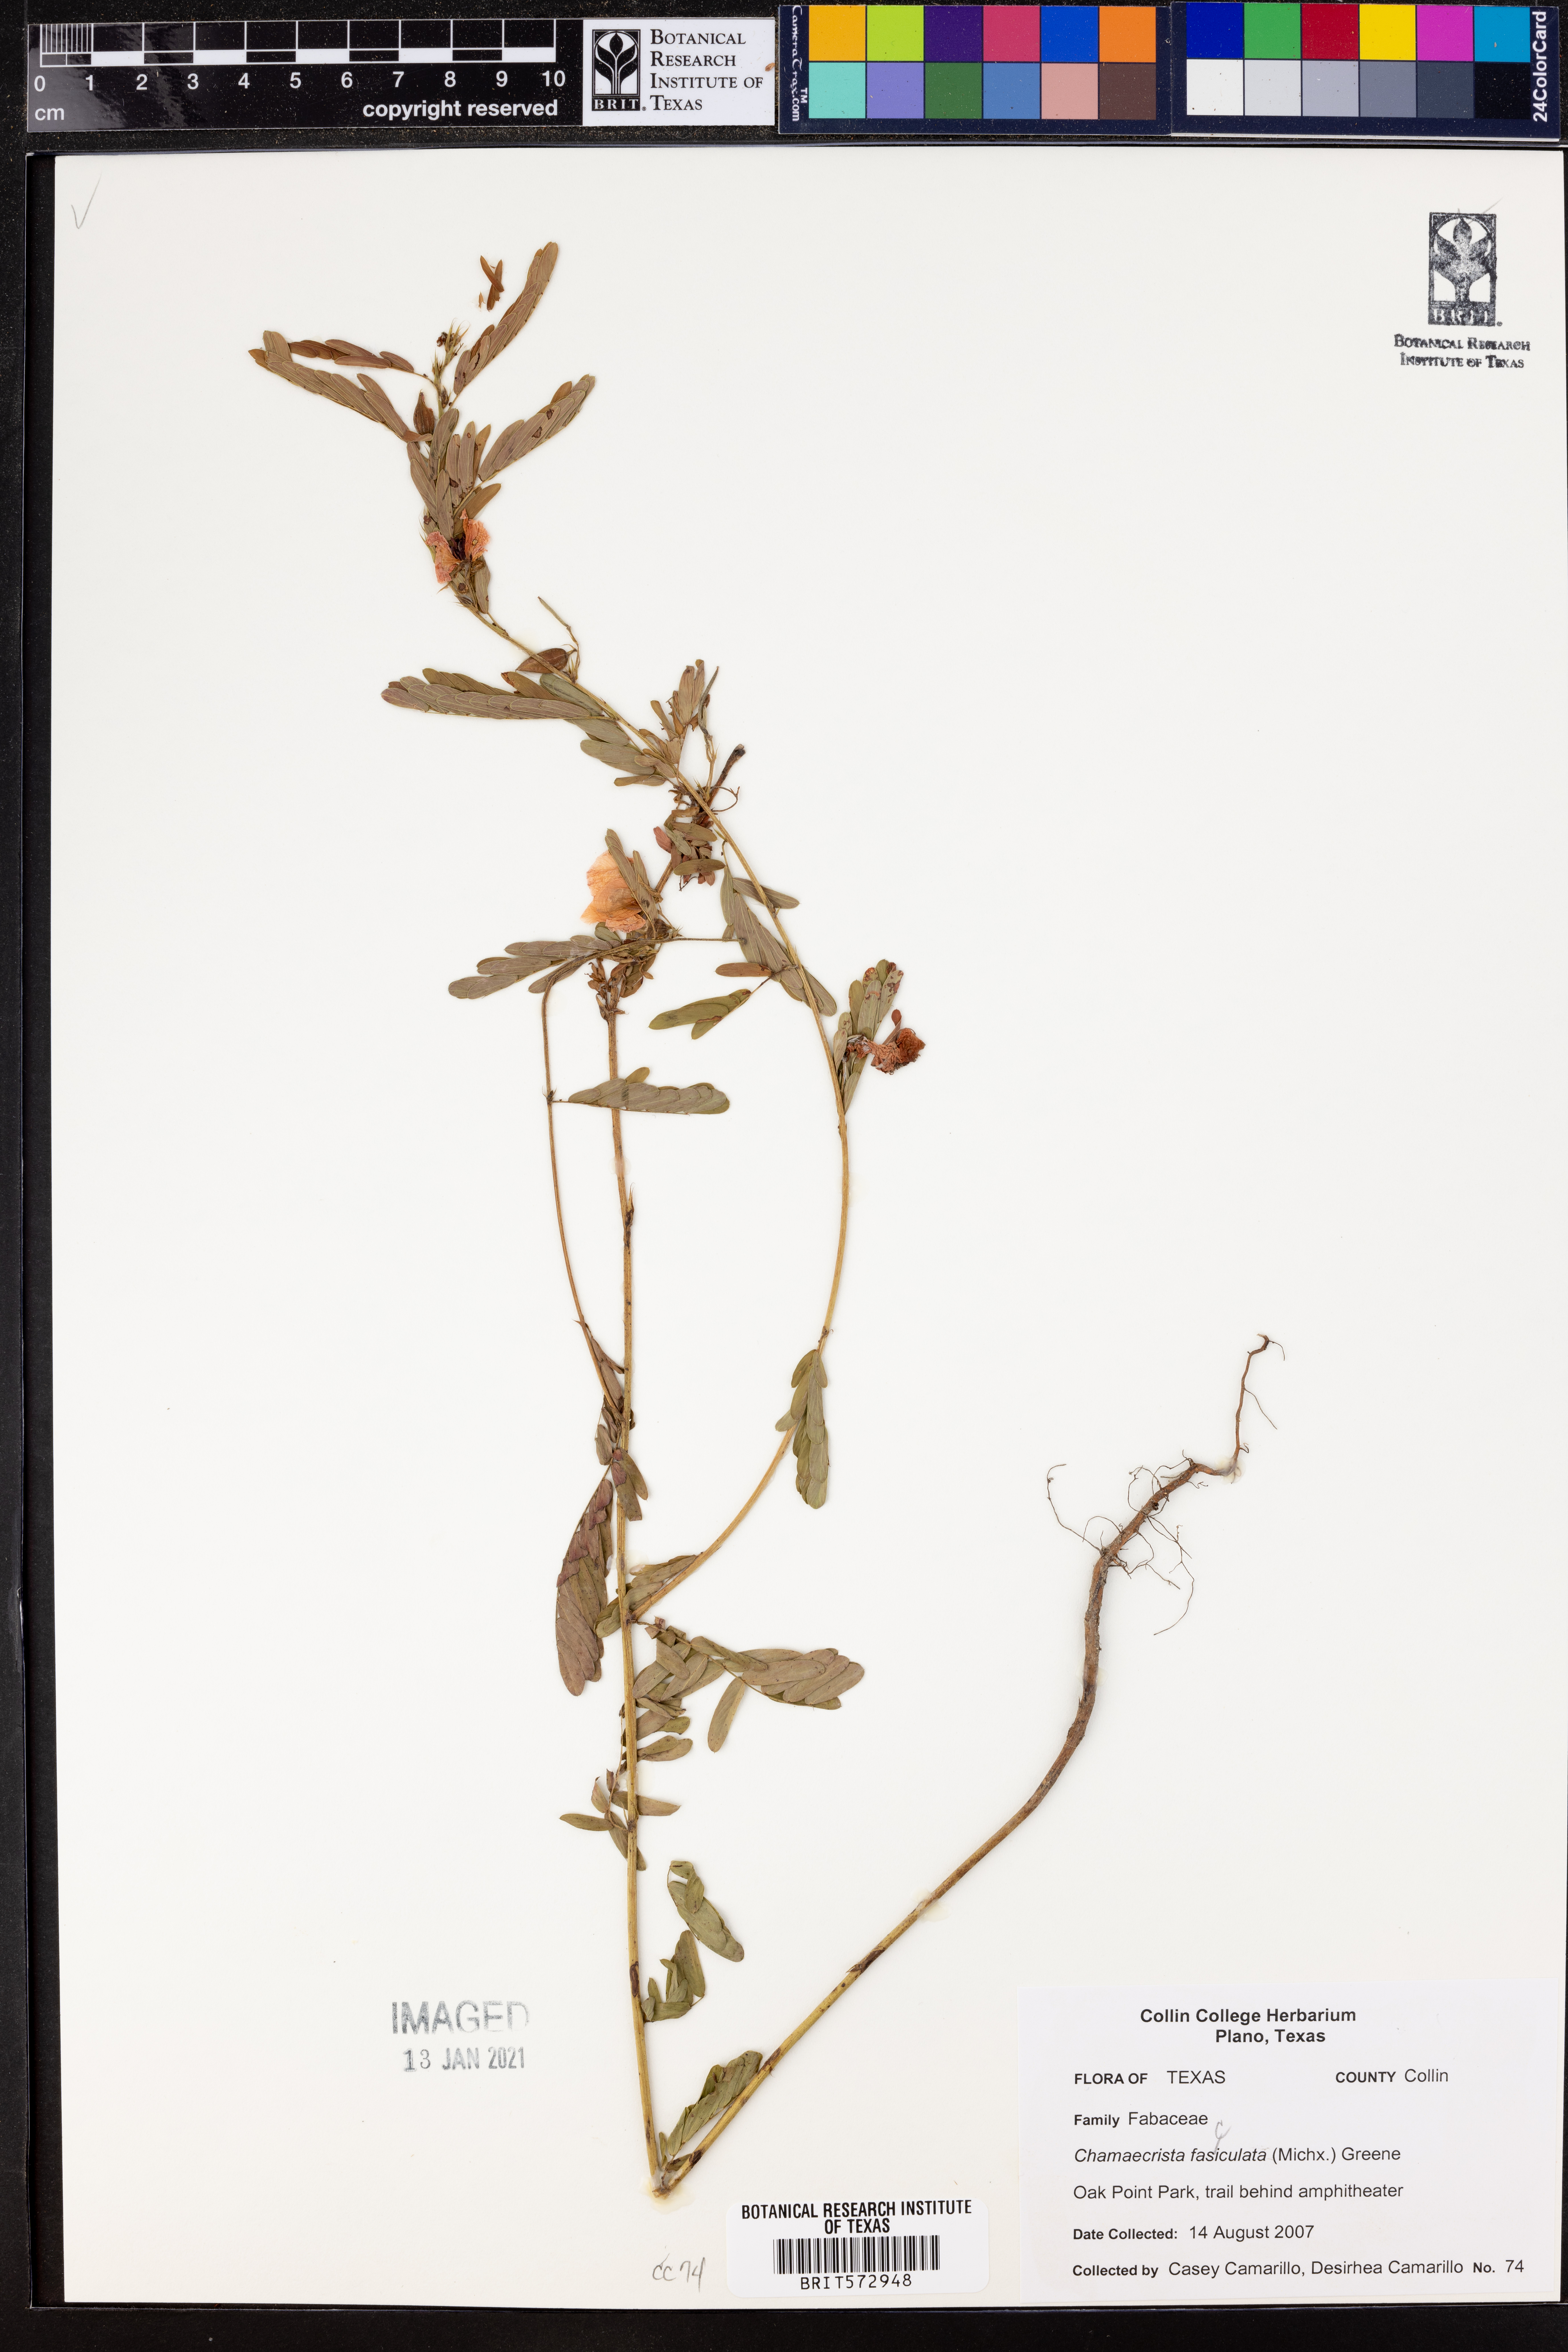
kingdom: Plantae
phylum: Tracheophyta
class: Magnoliopsida
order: Fabales
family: Fabaceae
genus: Chamaecrista
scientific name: Chamaecrista fasciculata
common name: Golden cassia
